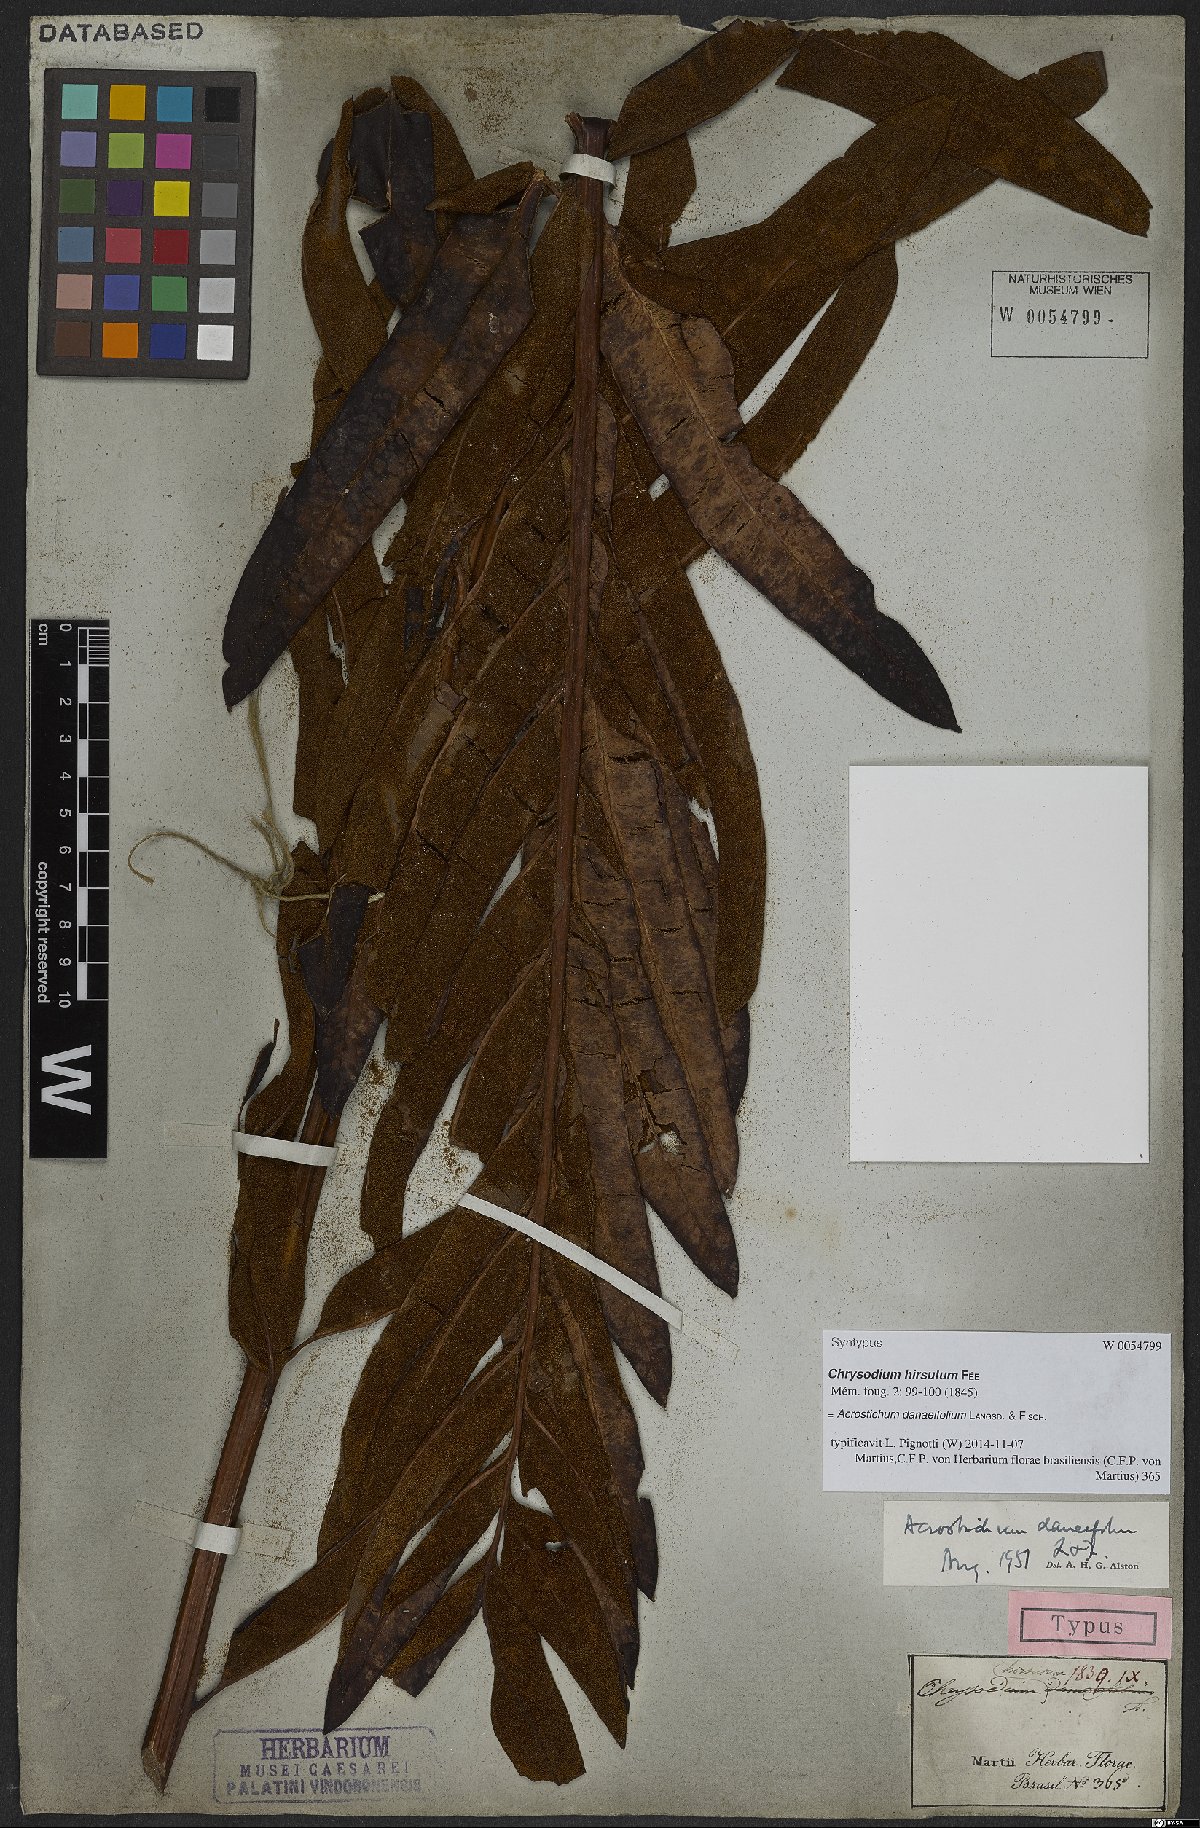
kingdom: Plantae
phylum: Tracheophyta
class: Polypodiopsida
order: Polypodiales
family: Pteridaceae
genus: Acrostichum
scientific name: Acrostichum danaeifolium
